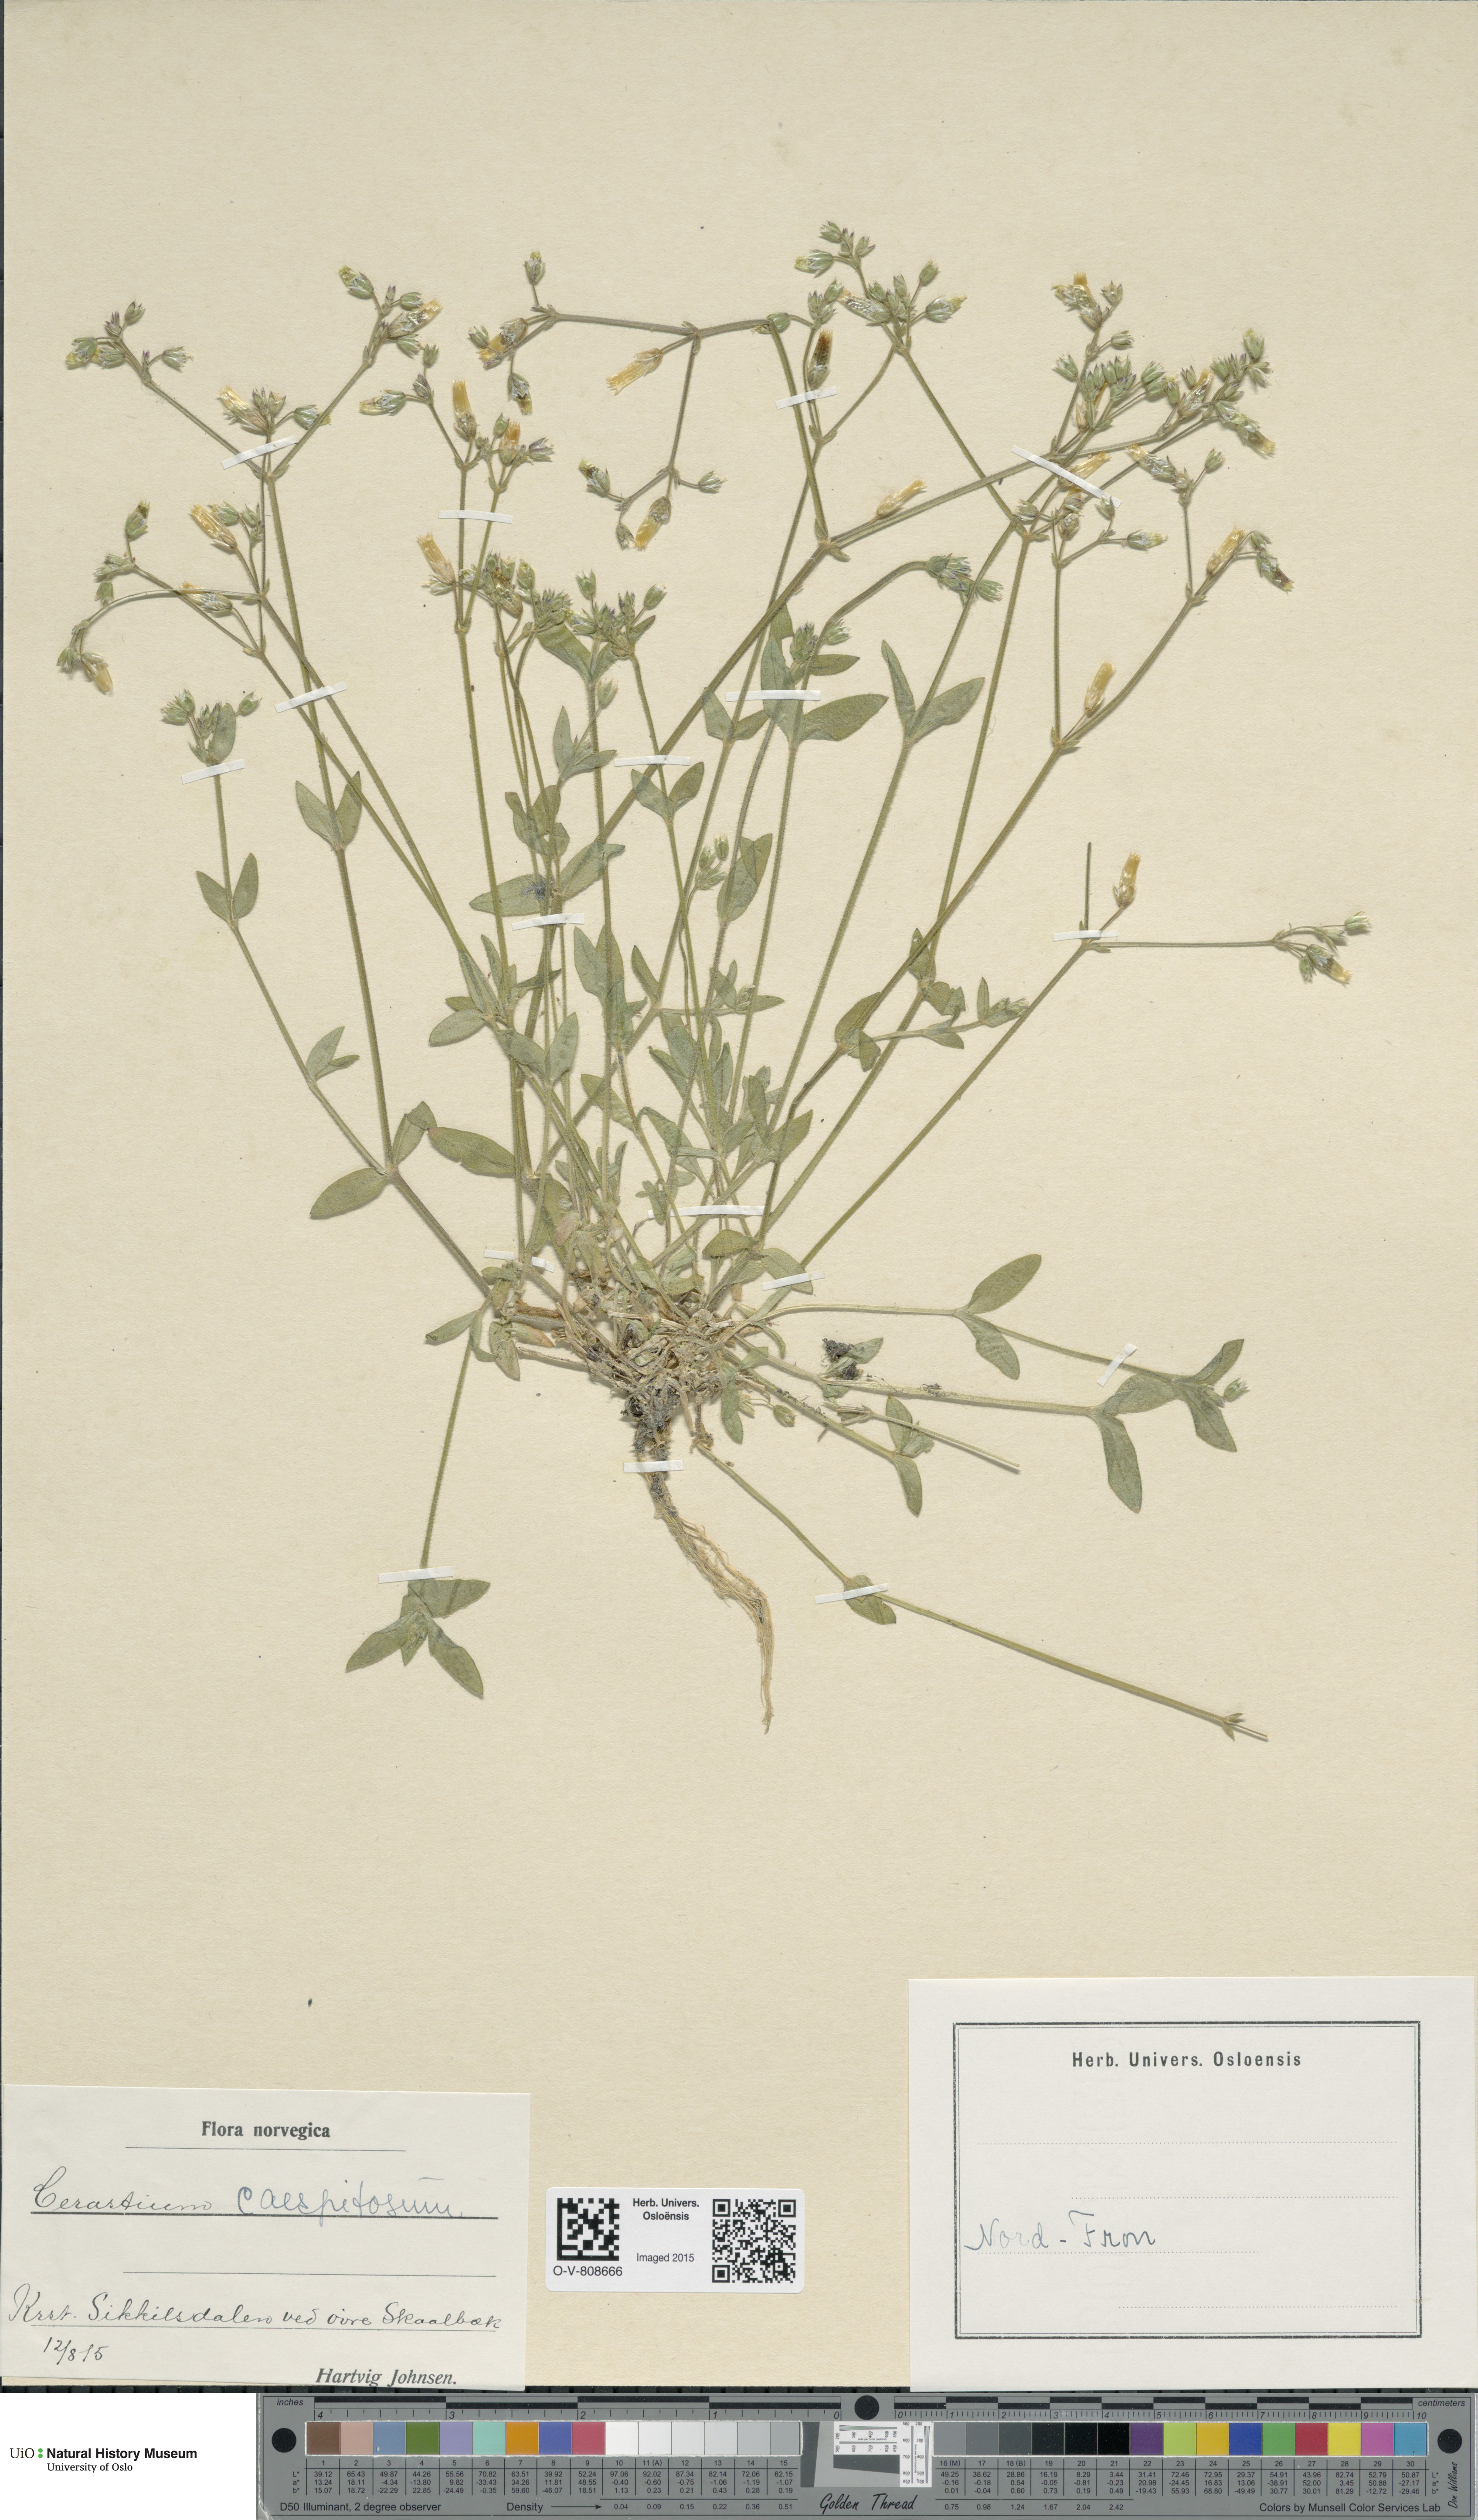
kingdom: Plantae
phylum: Tracheophyta
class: Magnoliopsida
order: Caryophyllales
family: Caryophyllaceae
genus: Cerastium
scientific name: Cerastium holosteoides
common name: Big chickweed
